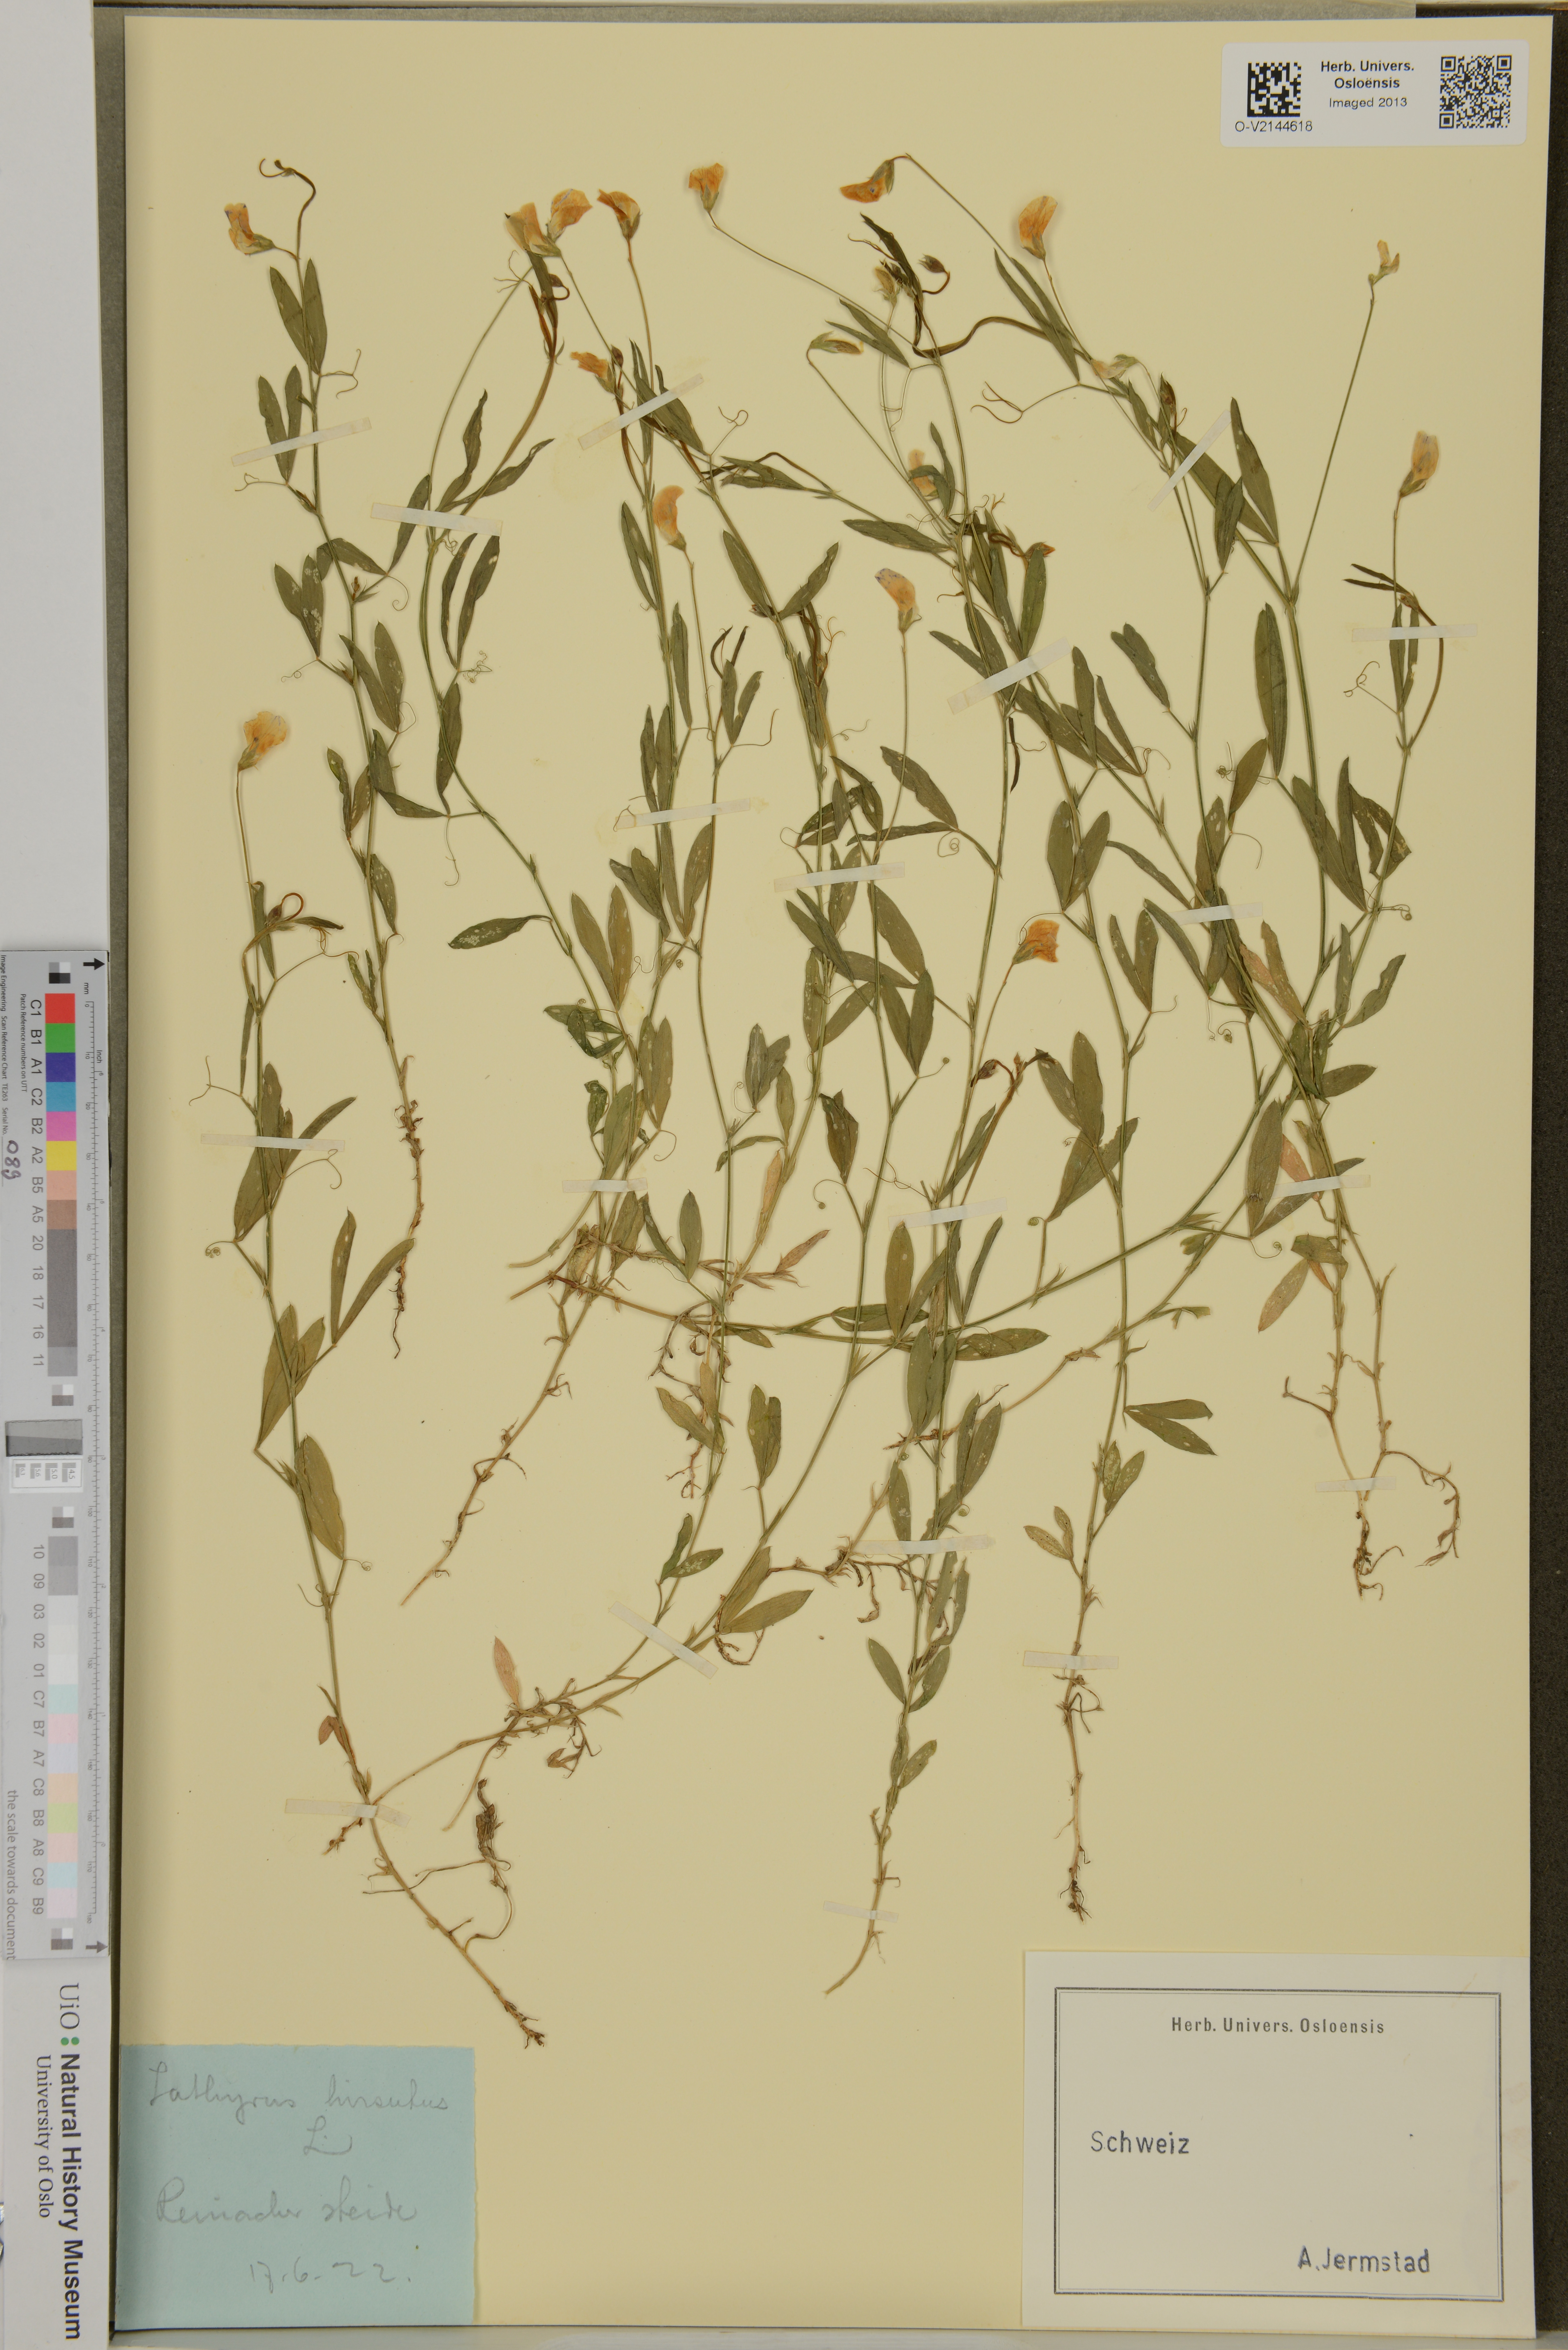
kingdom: Plantae
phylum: Tracheophyta
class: Magnoliopsida
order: Fabales
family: Fabaceae
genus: Lathyrus
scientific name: Lathyrus hirsutus
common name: Hairy vetchling
